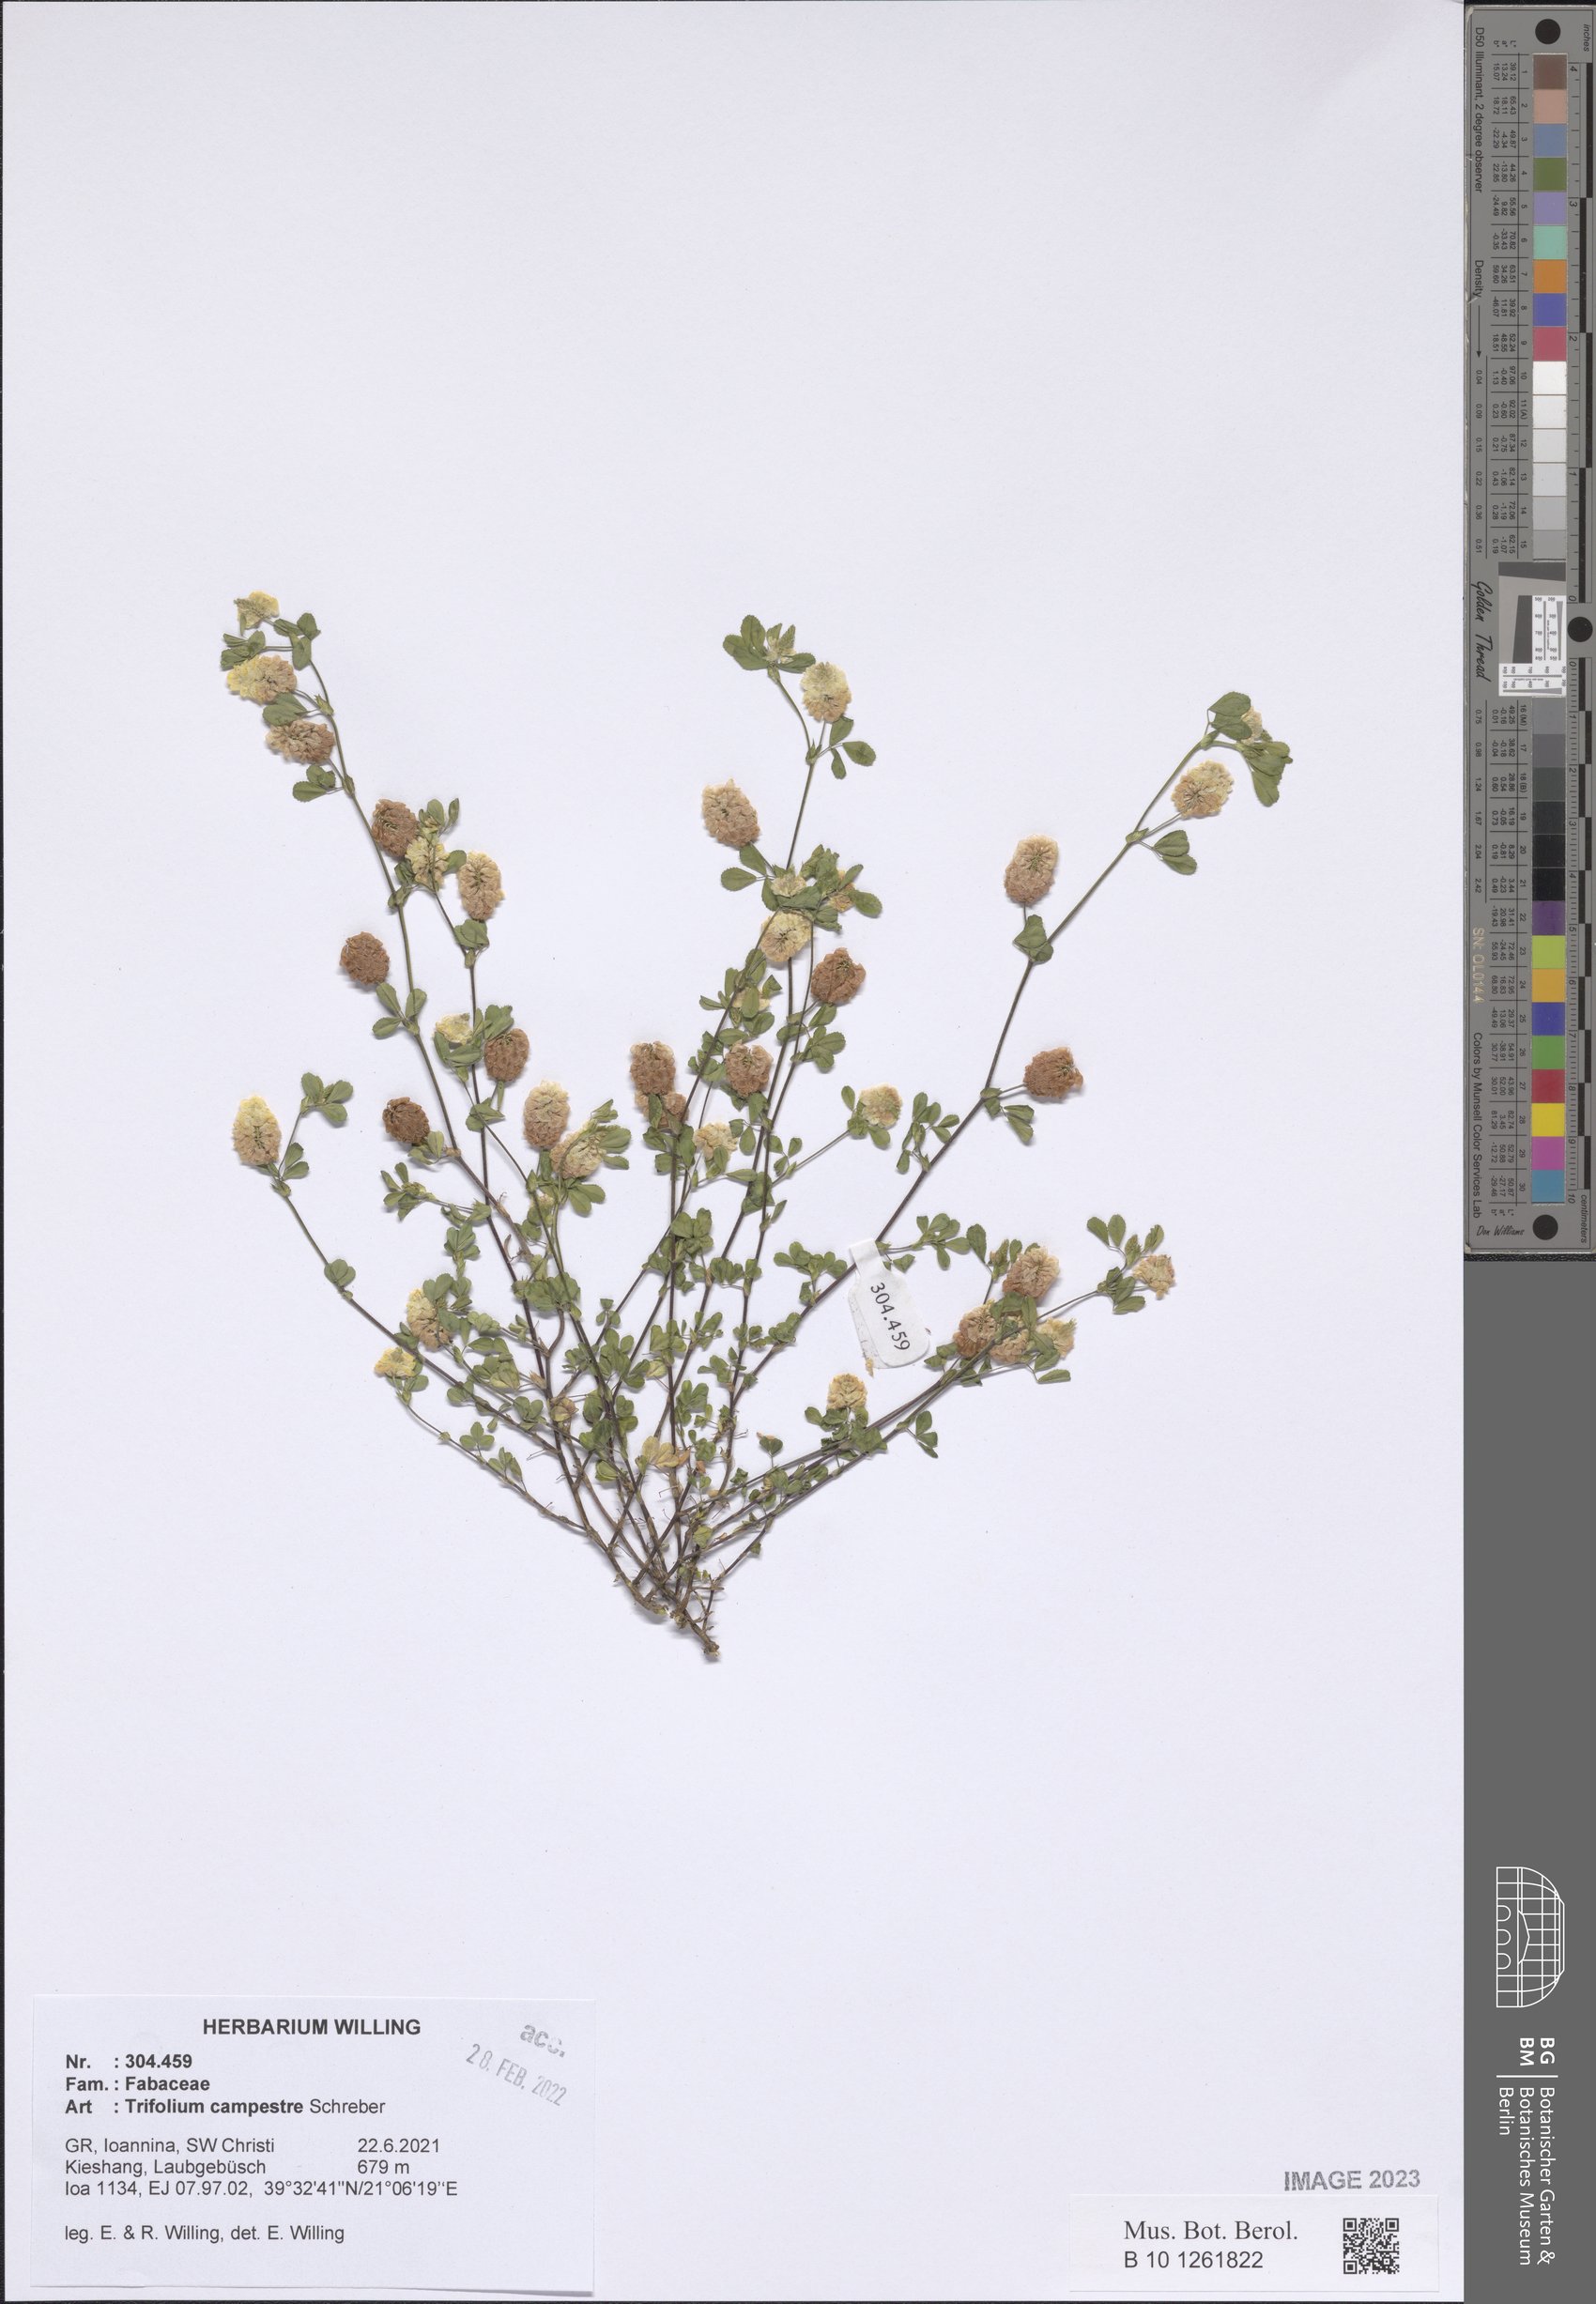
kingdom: Plantae
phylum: Tracheophyta
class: Magnoliopsida
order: Fabales
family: Fabaceae
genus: Trifolium
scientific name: Trifolium campestre
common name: Field clover
